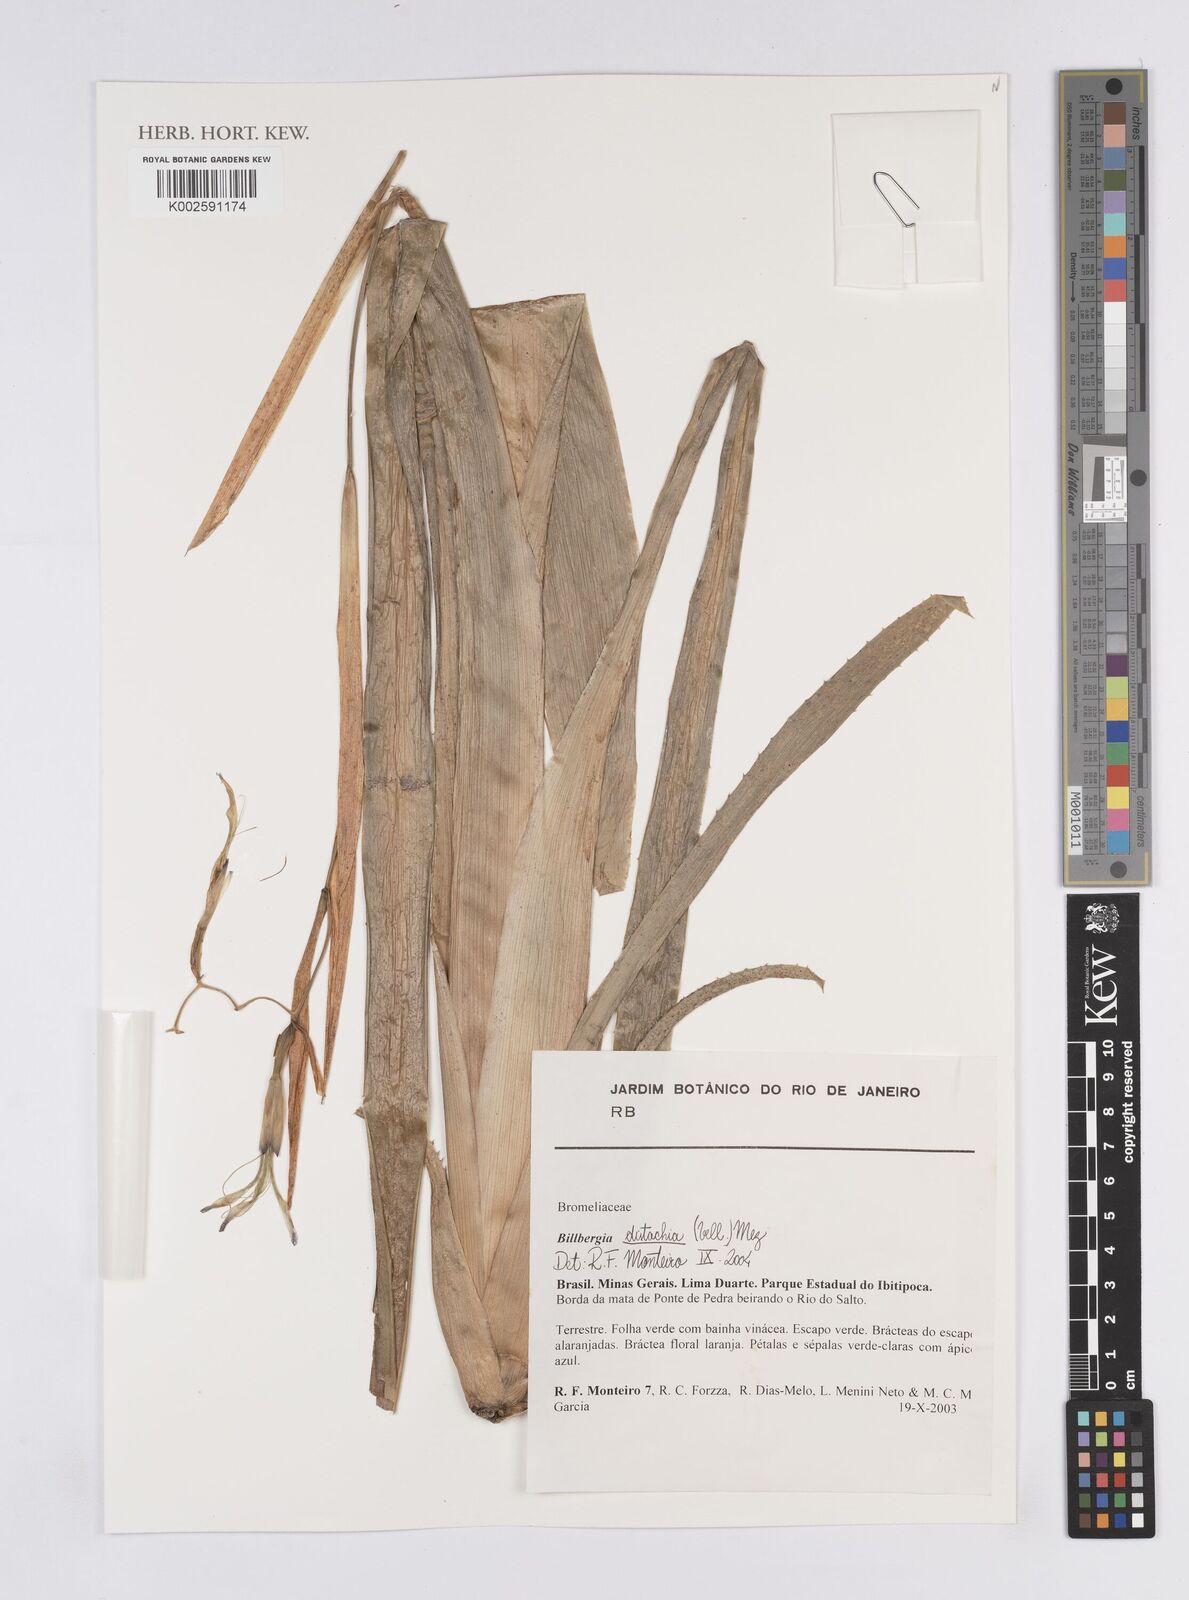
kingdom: Plantae
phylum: Tracheophyta
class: Liliopsida
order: Poales
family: Bromeliaceae
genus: Billbergia
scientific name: Billbergia distachia
